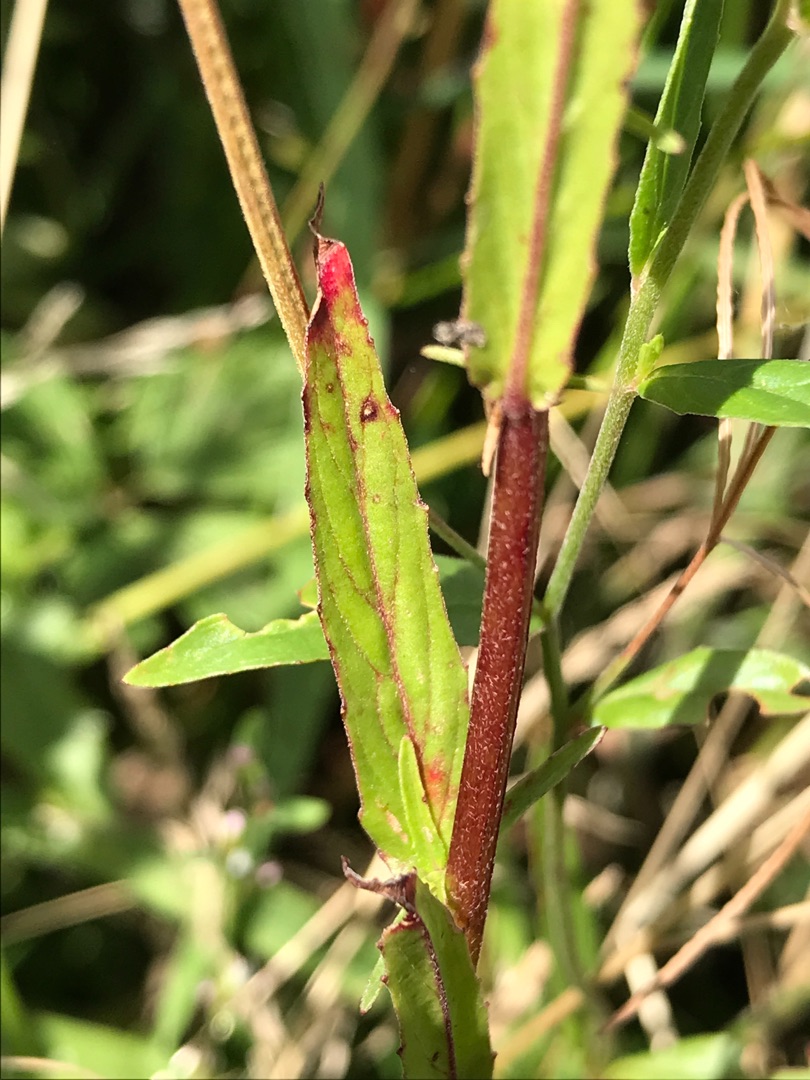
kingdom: Plantae
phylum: Tracheophyta
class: Magnoliopsida
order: Myrtales
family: Onagraceae
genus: Epilobium
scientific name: Epilobium obscurum
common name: Ris-dueurt
